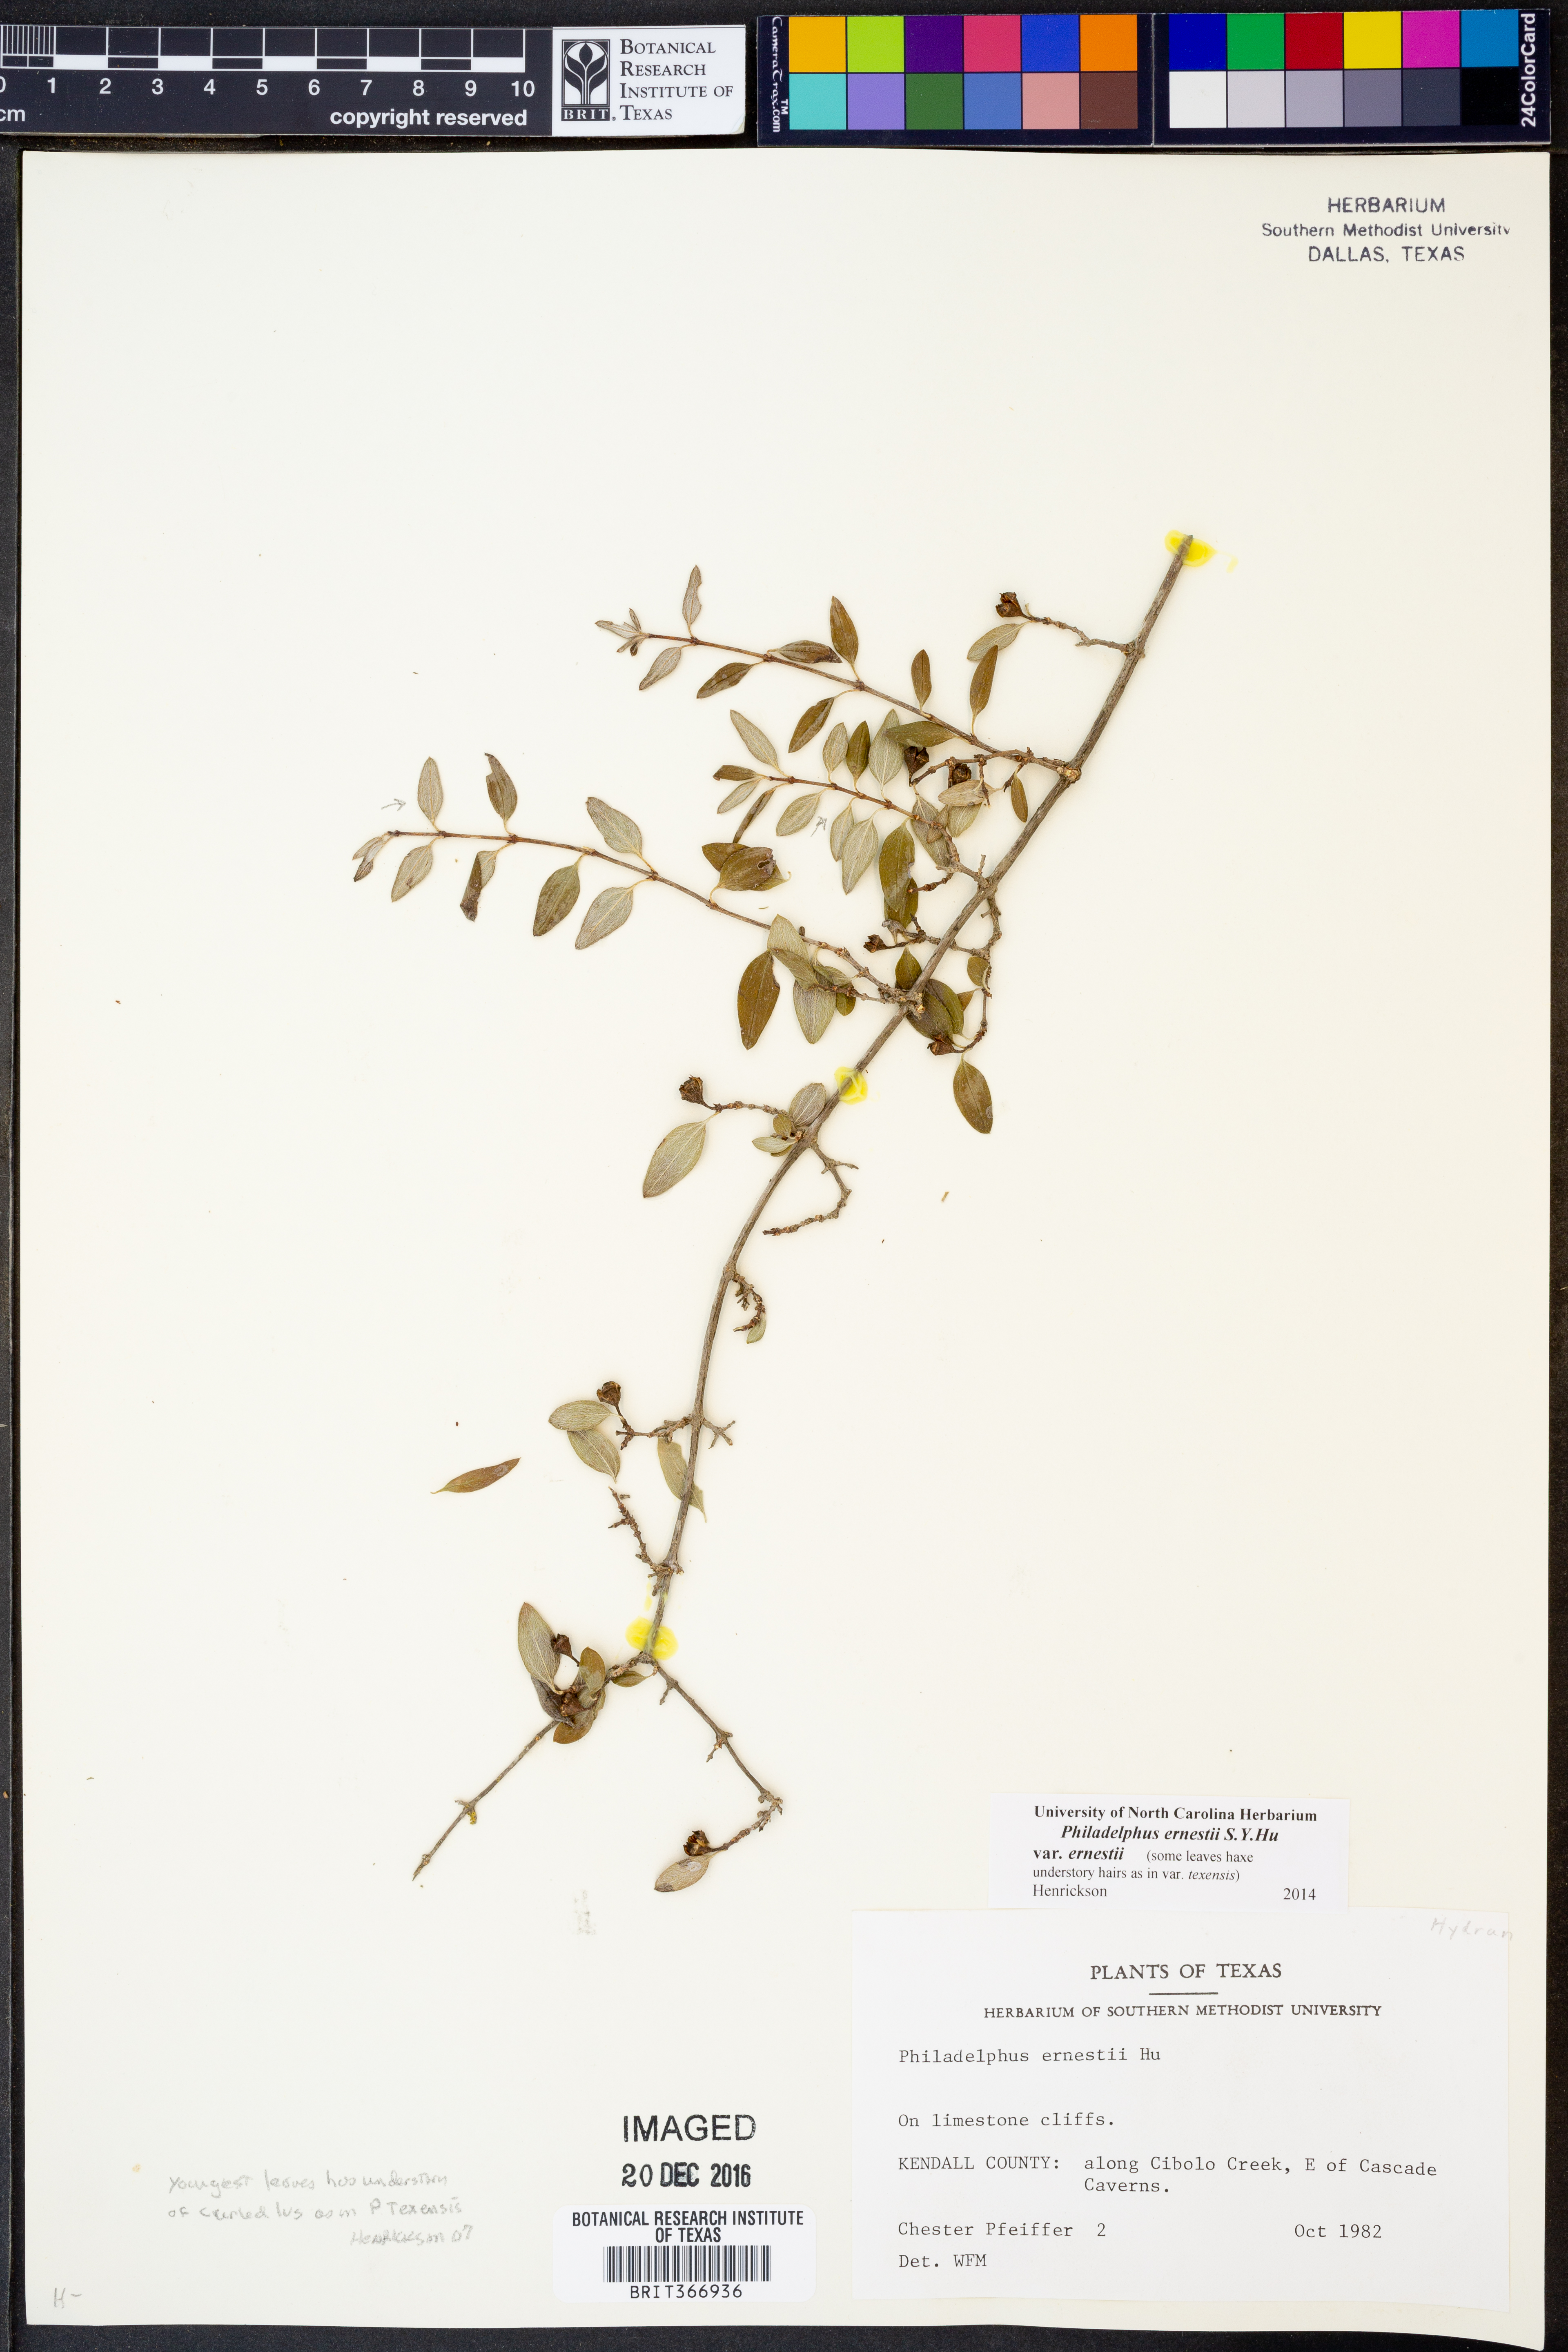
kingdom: Plantae
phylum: Tracheophyta
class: Magnoliopsida
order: Cornales
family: Hydrangeaceae
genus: Philadelphus
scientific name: Philadelphus texensis
